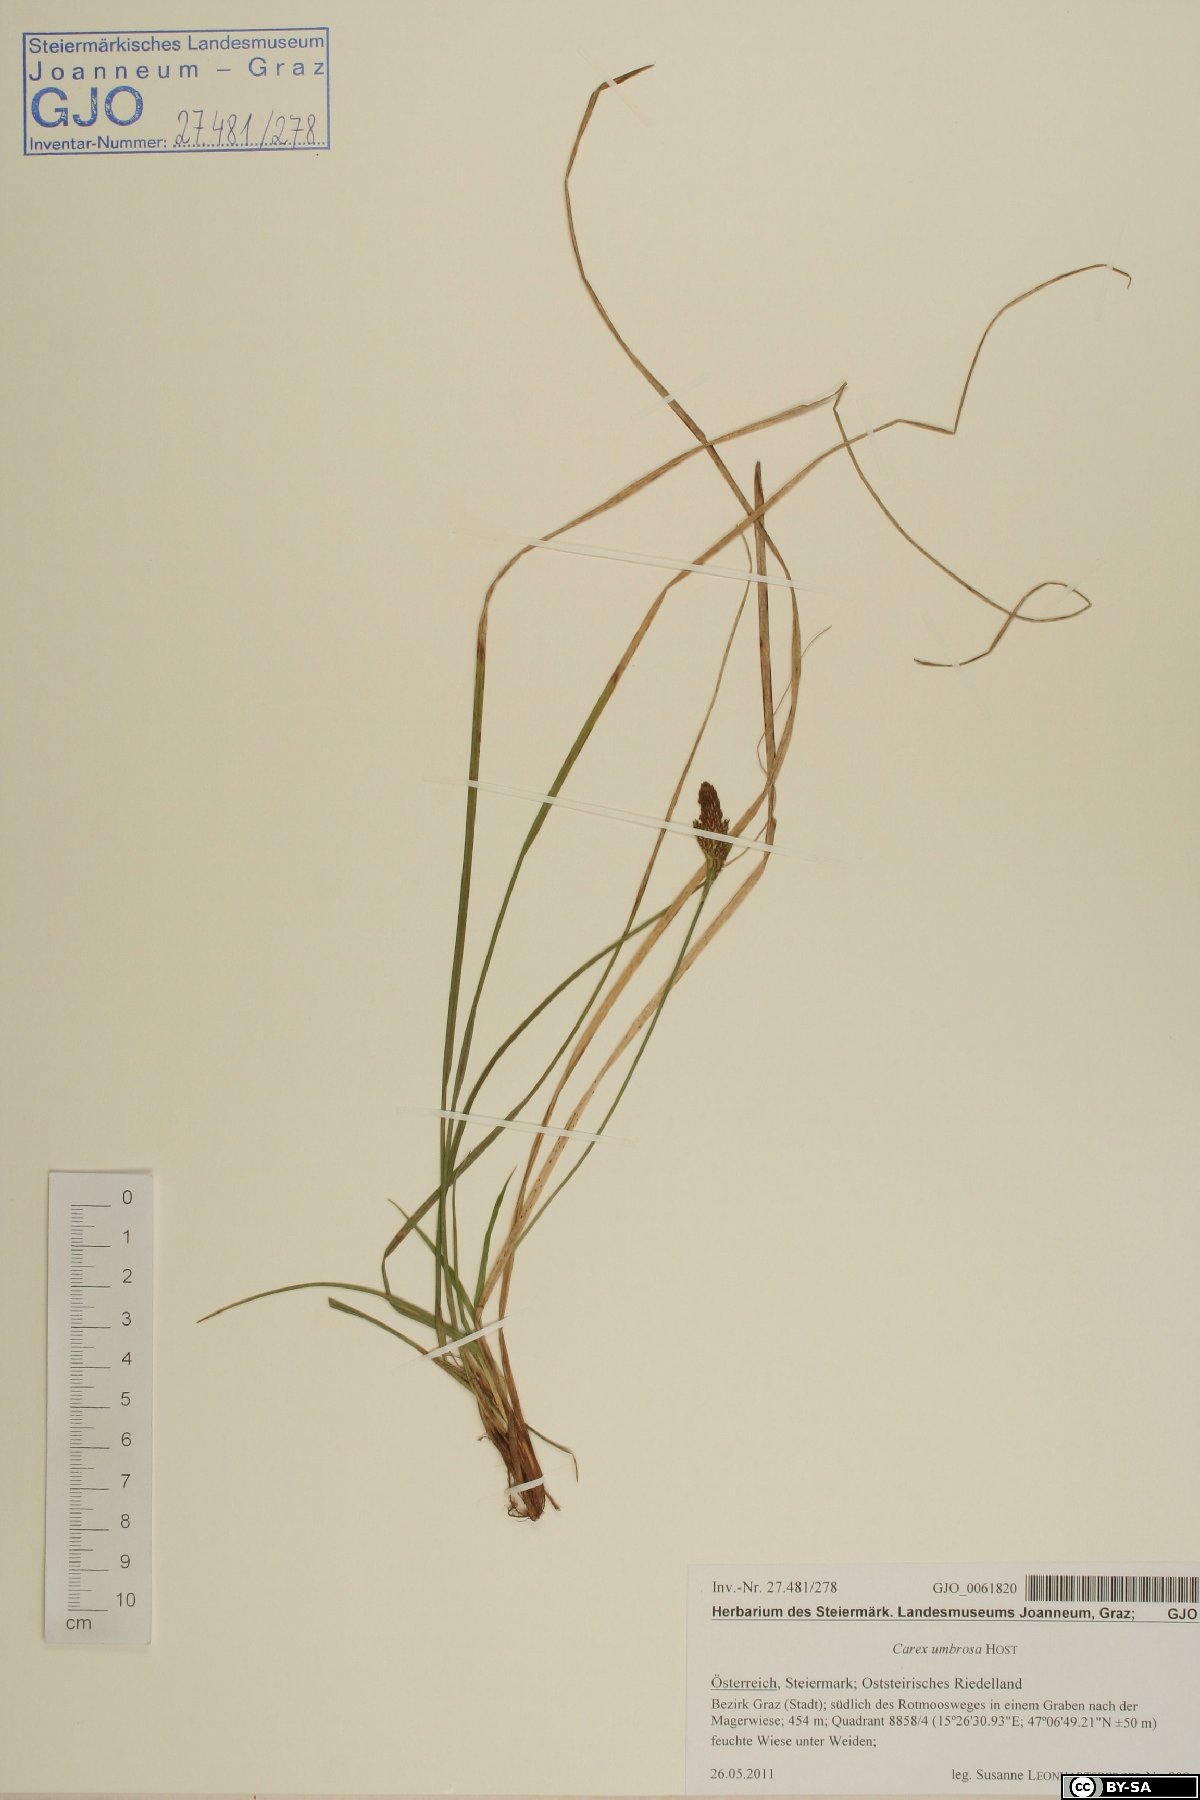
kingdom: Plantae
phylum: Tracheophyta
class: Liliopsida
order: Poales
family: Cyperaceae
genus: Carex
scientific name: Carex umbrosa
